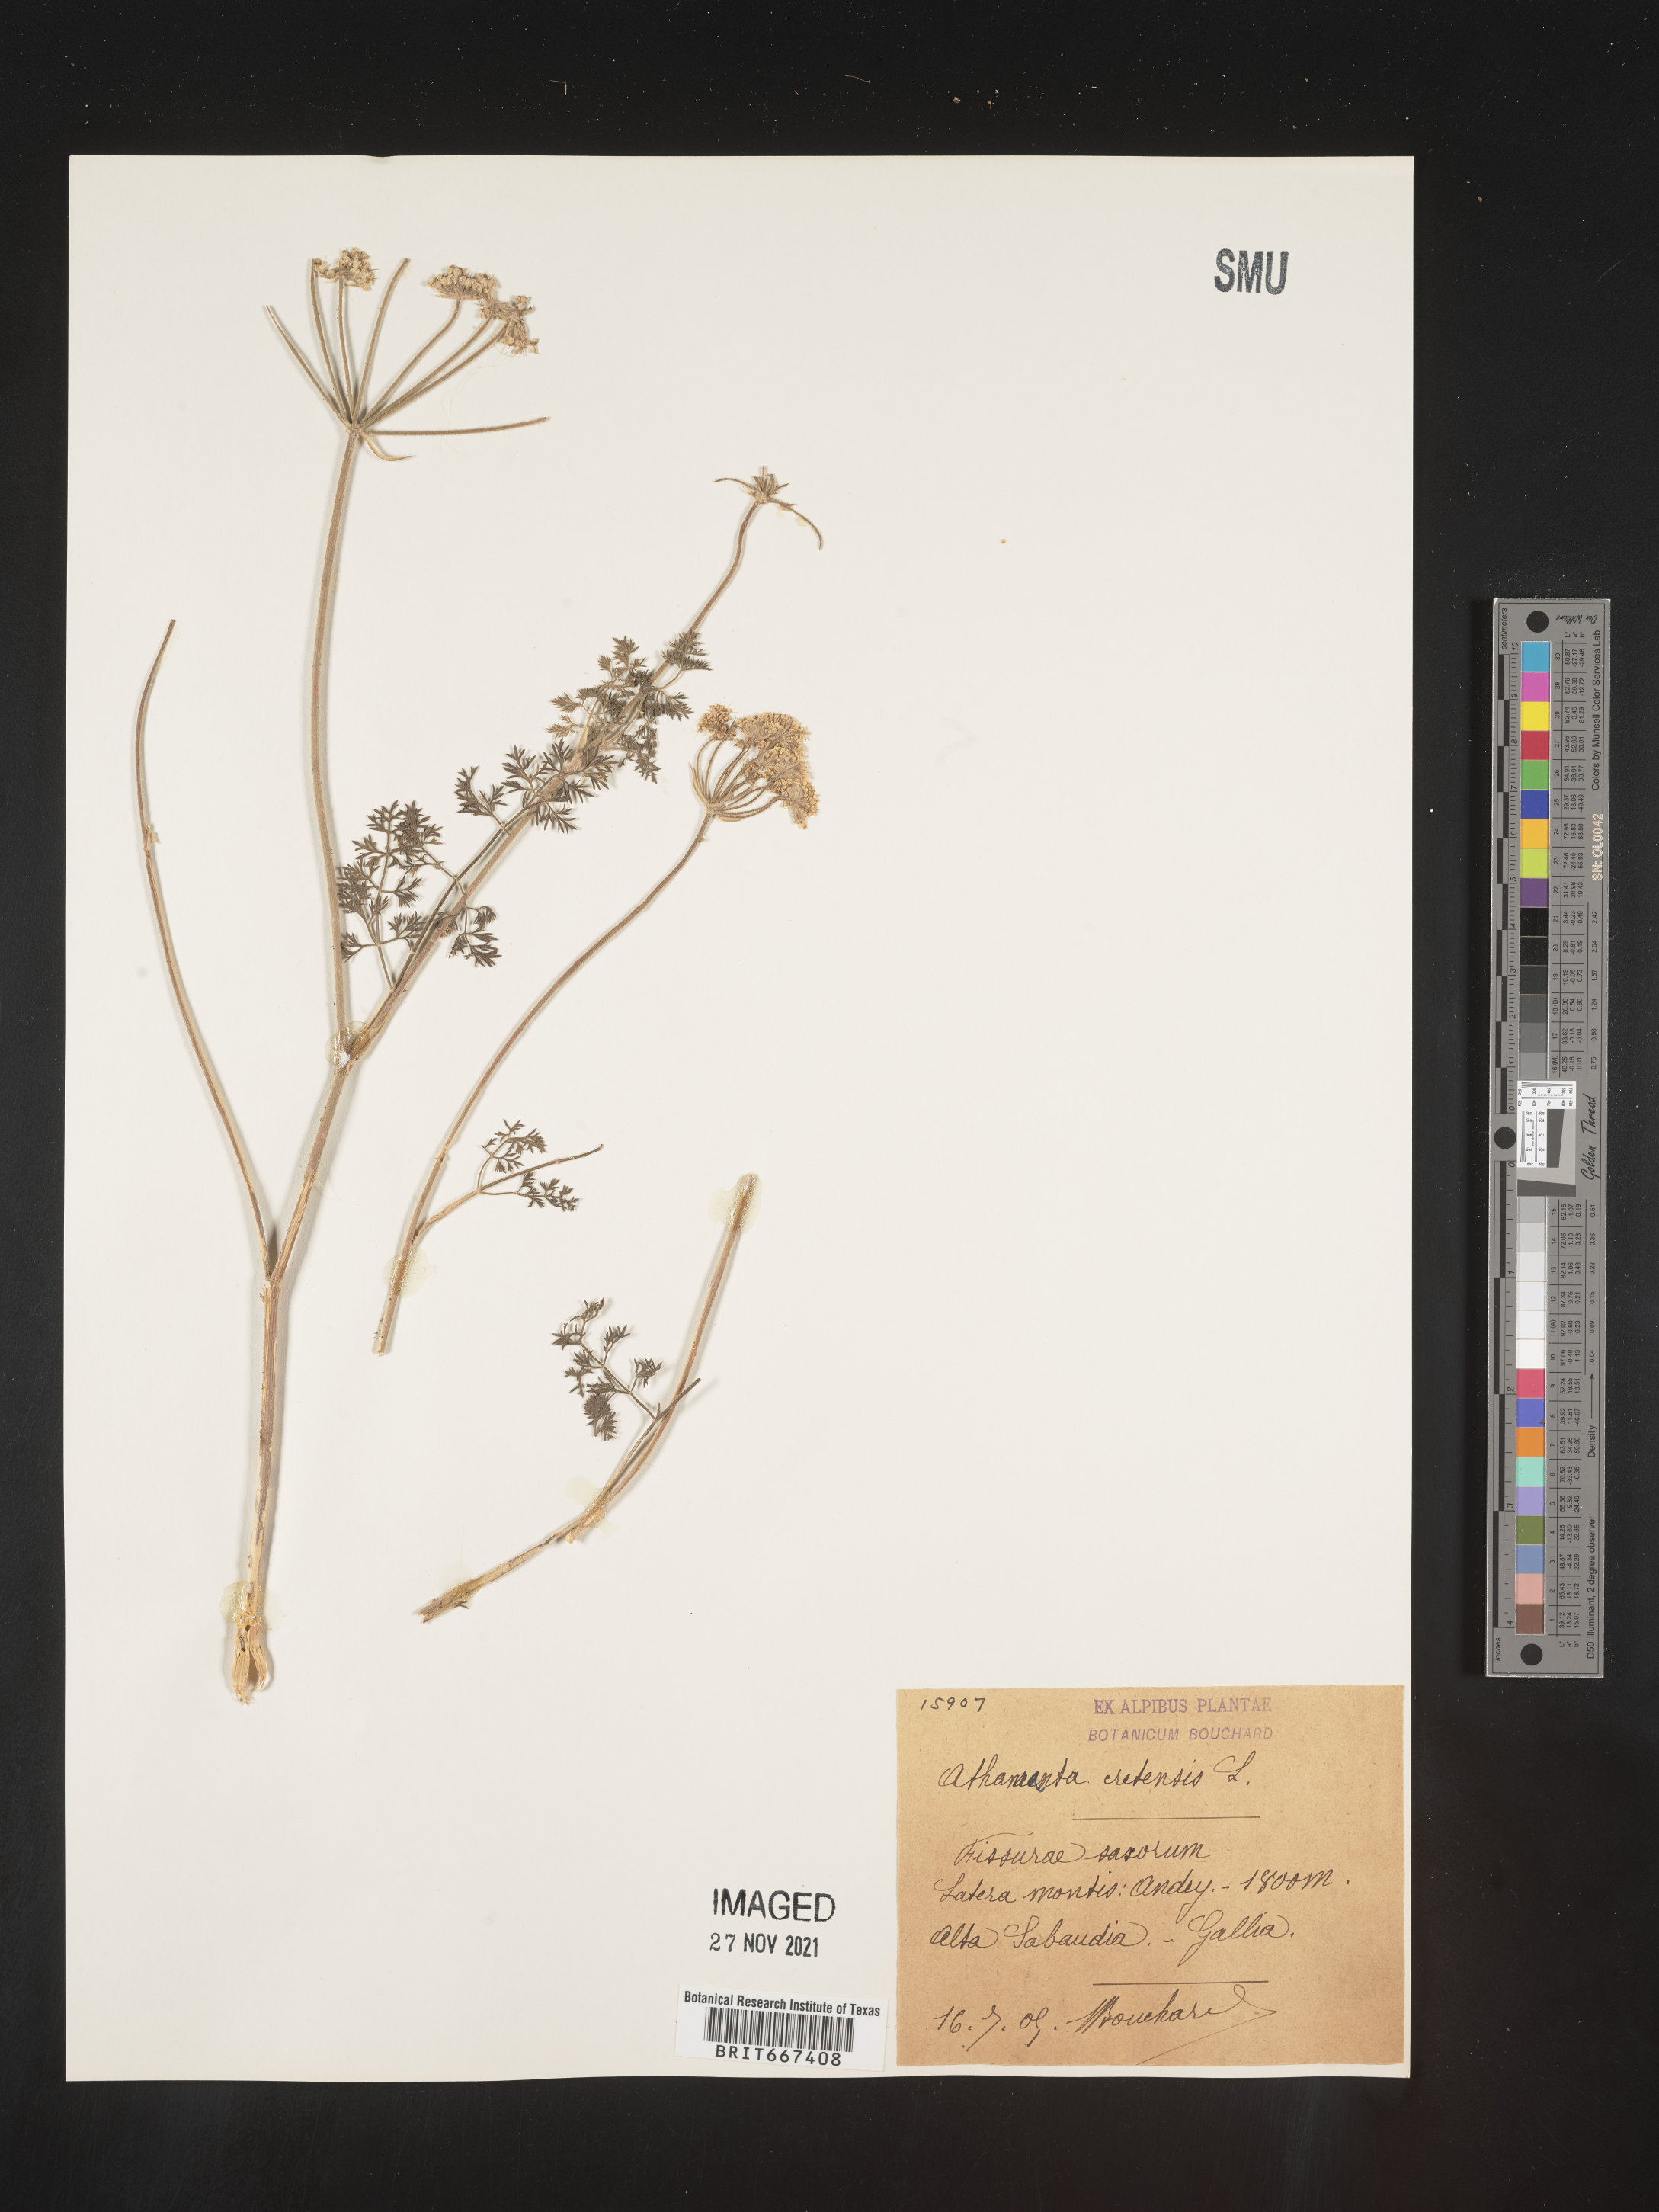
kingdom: Plantae
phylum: Tracheophyta
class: Magnoliopsida
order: Apiales
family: Apiaceae
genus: Athamanta
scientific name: Athamanta
